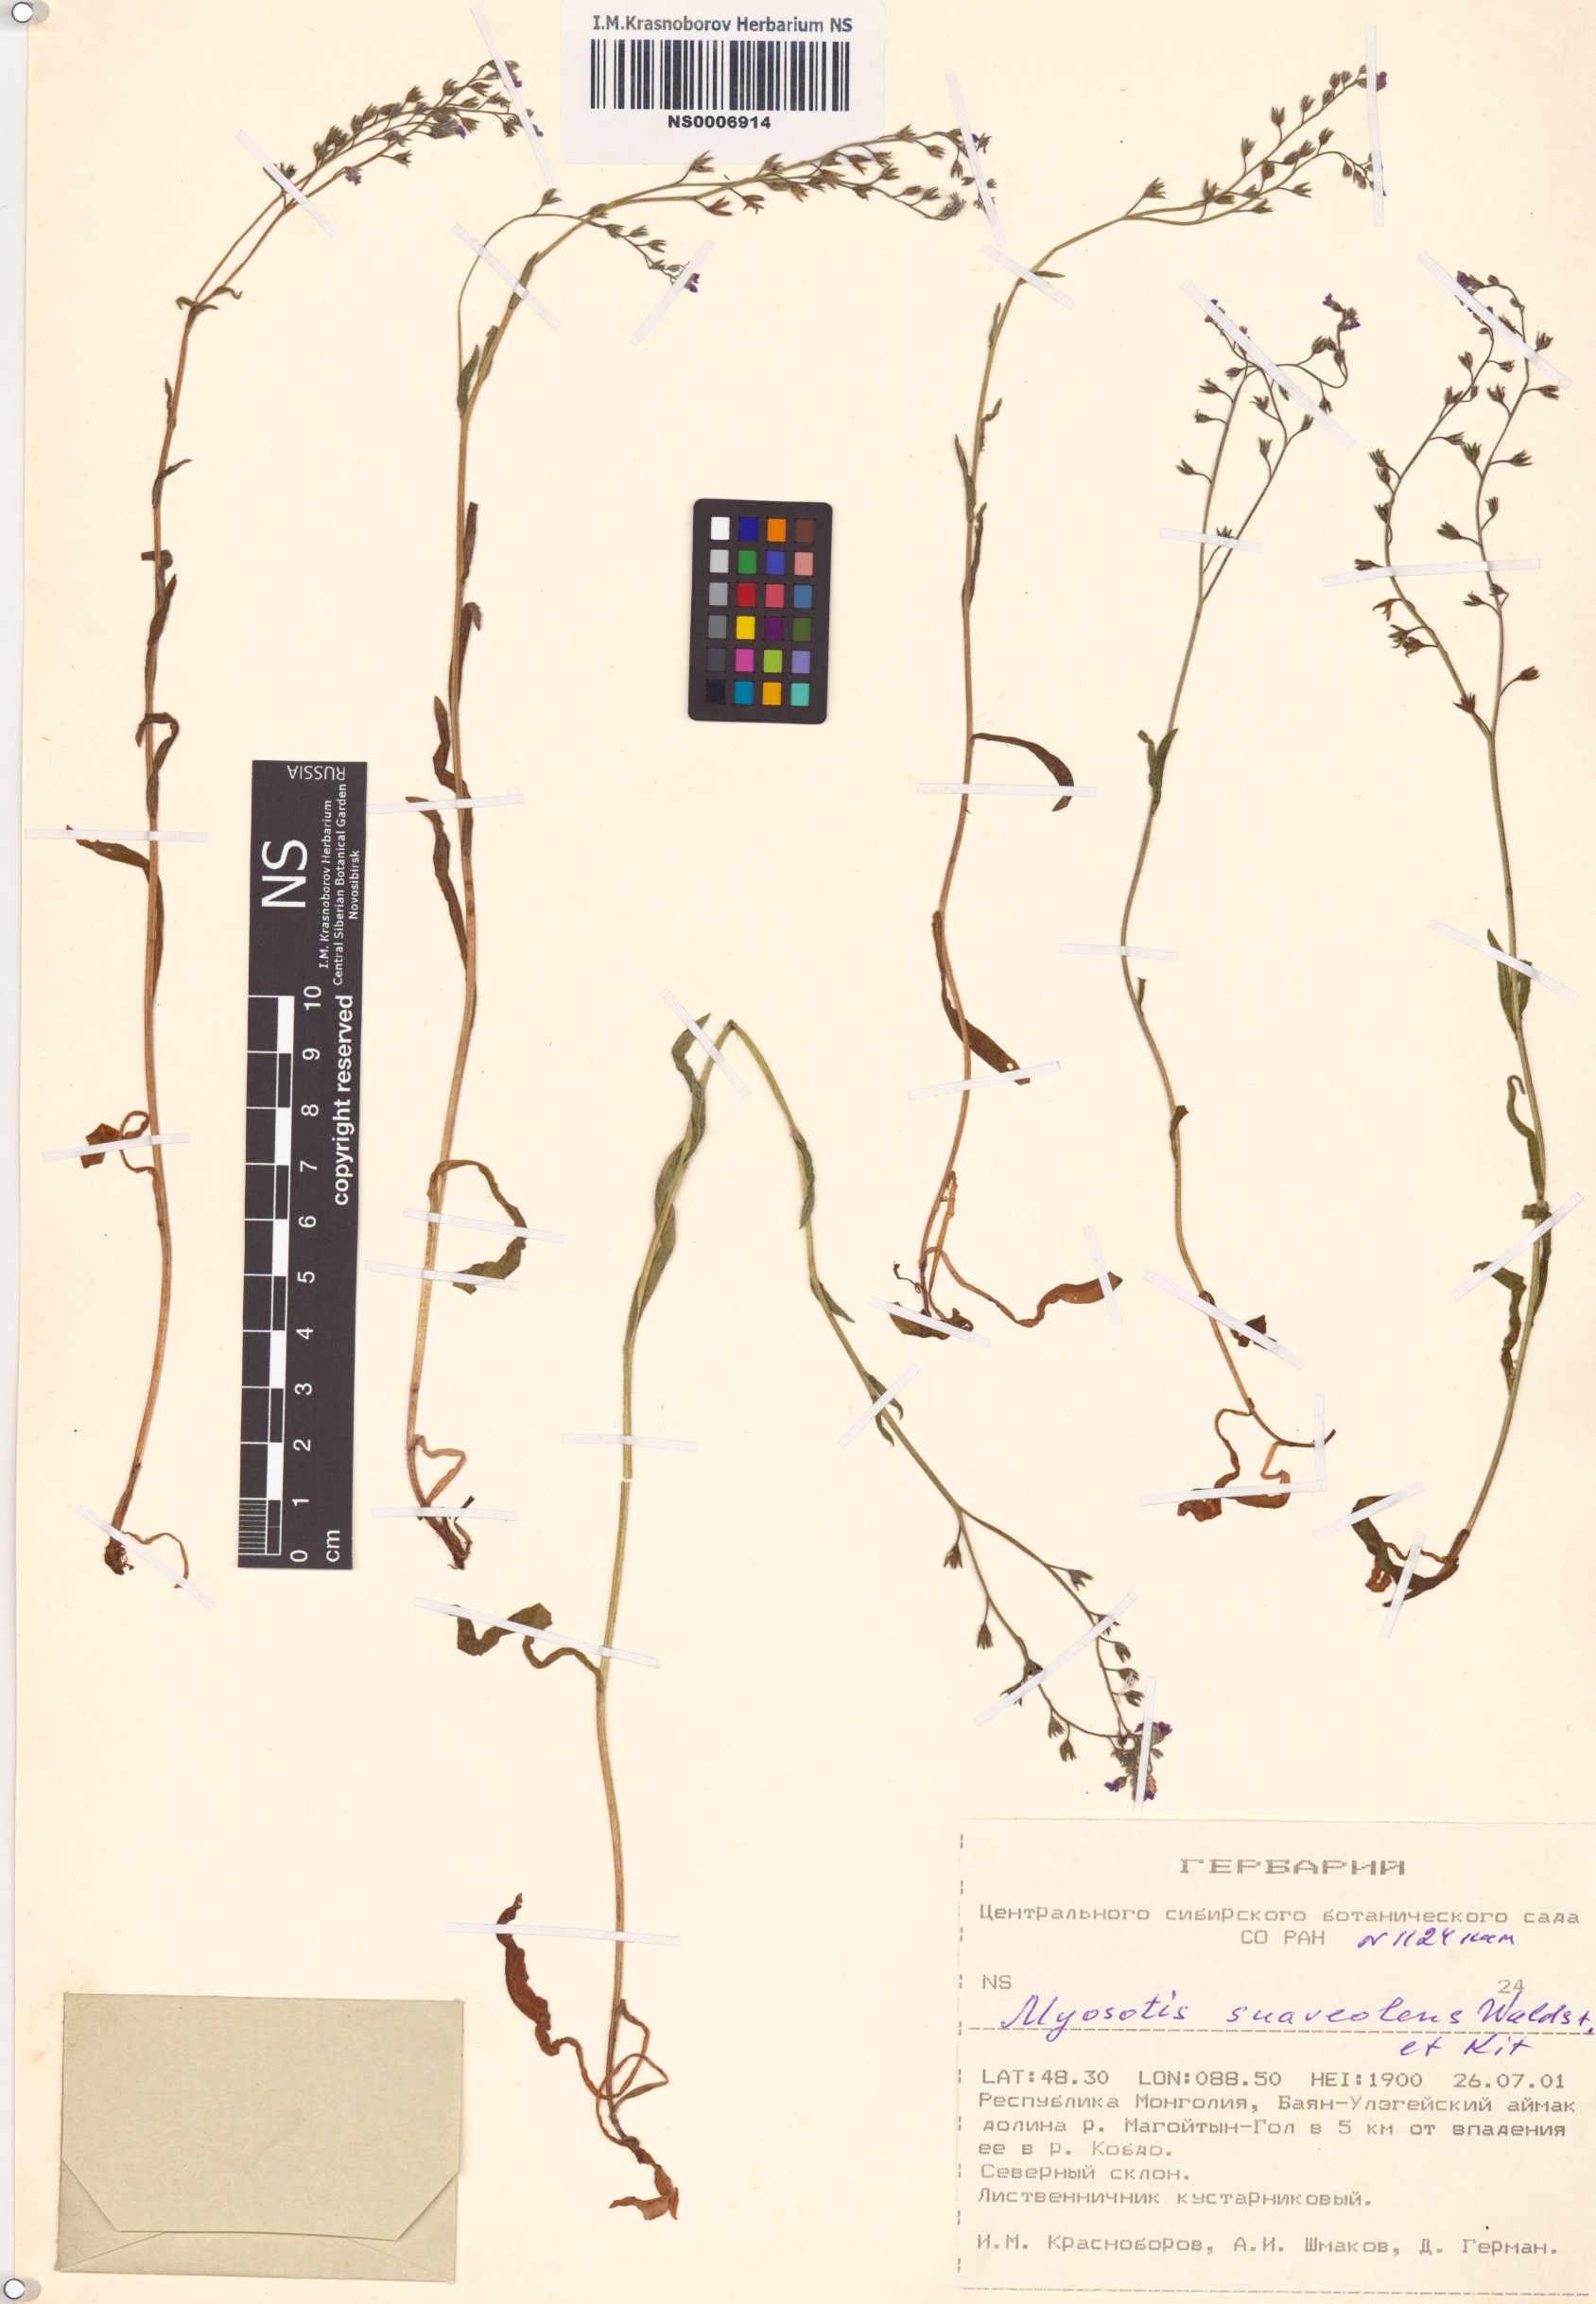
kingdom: Plantae
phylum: Tracheophyta
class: Magnoliopsida
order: Boraginales
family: Boraginaceae
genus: Myosotis
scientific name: Myosotis alpestris
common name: Alpine forget-me-not
